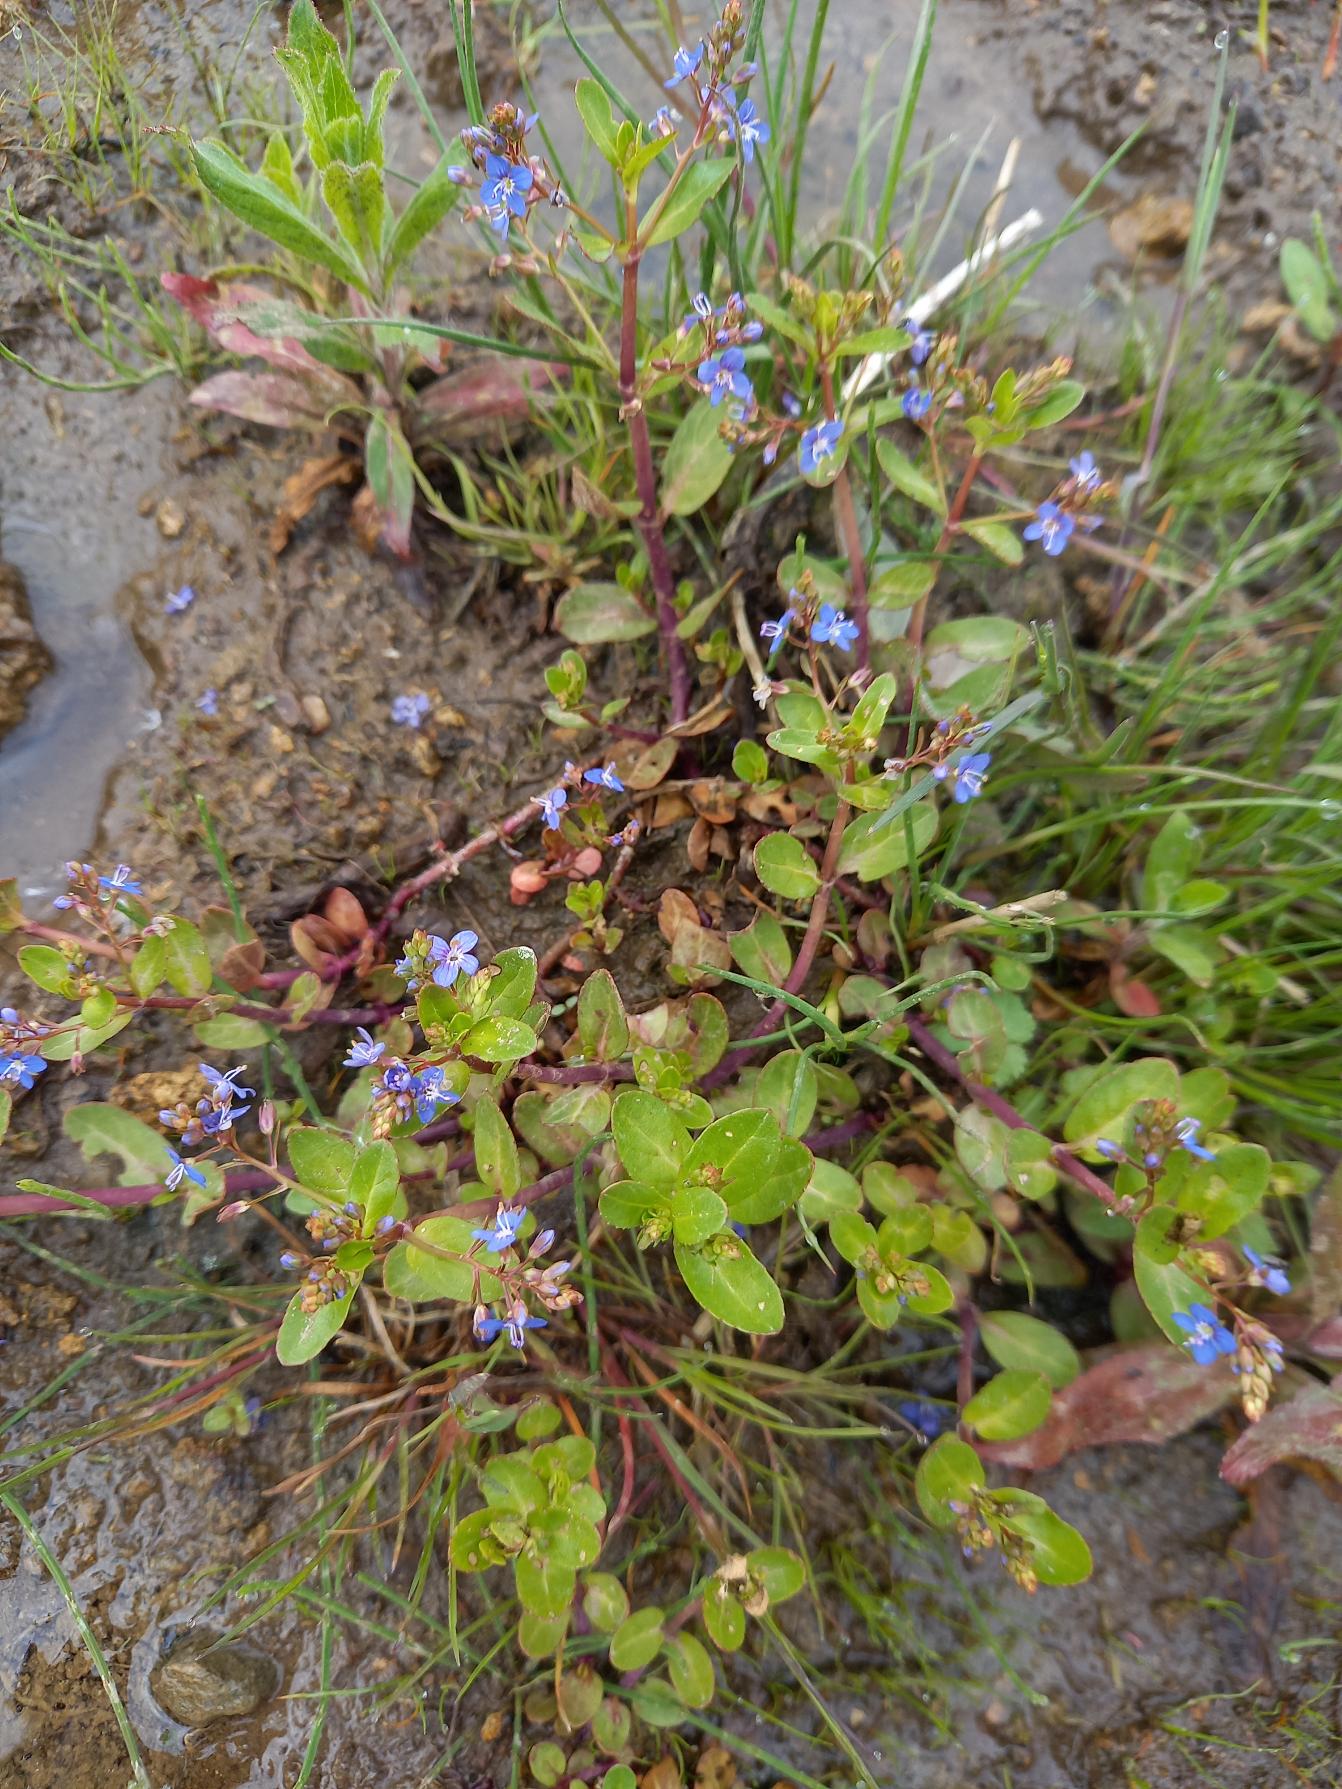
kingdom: Plantae
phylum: Tracheophyta
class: Magnoliopsida
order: Lamiales
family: Plantaginaceae
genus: Veronica
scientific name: Veronica beccabunga
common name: Tykbladet ærenpris
